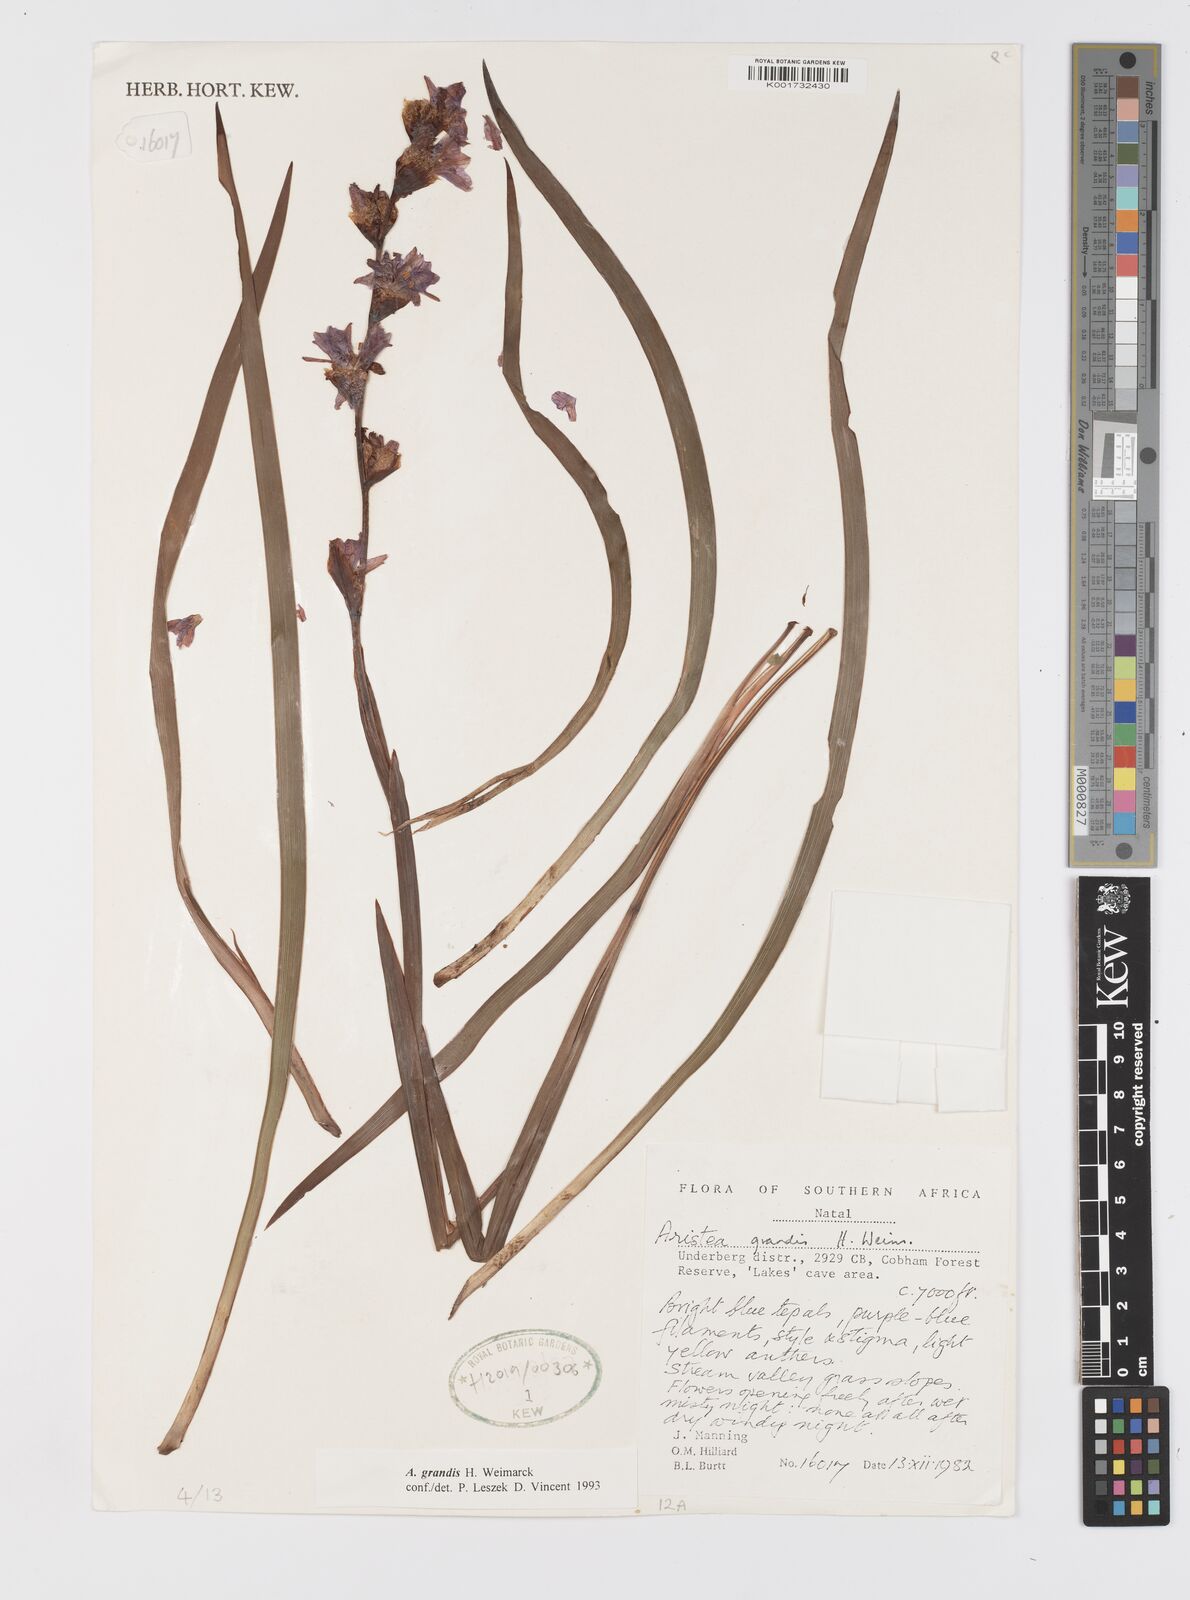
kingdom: Plantae
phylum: Tracheophyta
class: Liliopsida
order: Asparagales
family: Iridaceae
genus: Aristea
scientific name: Aristea grandis
